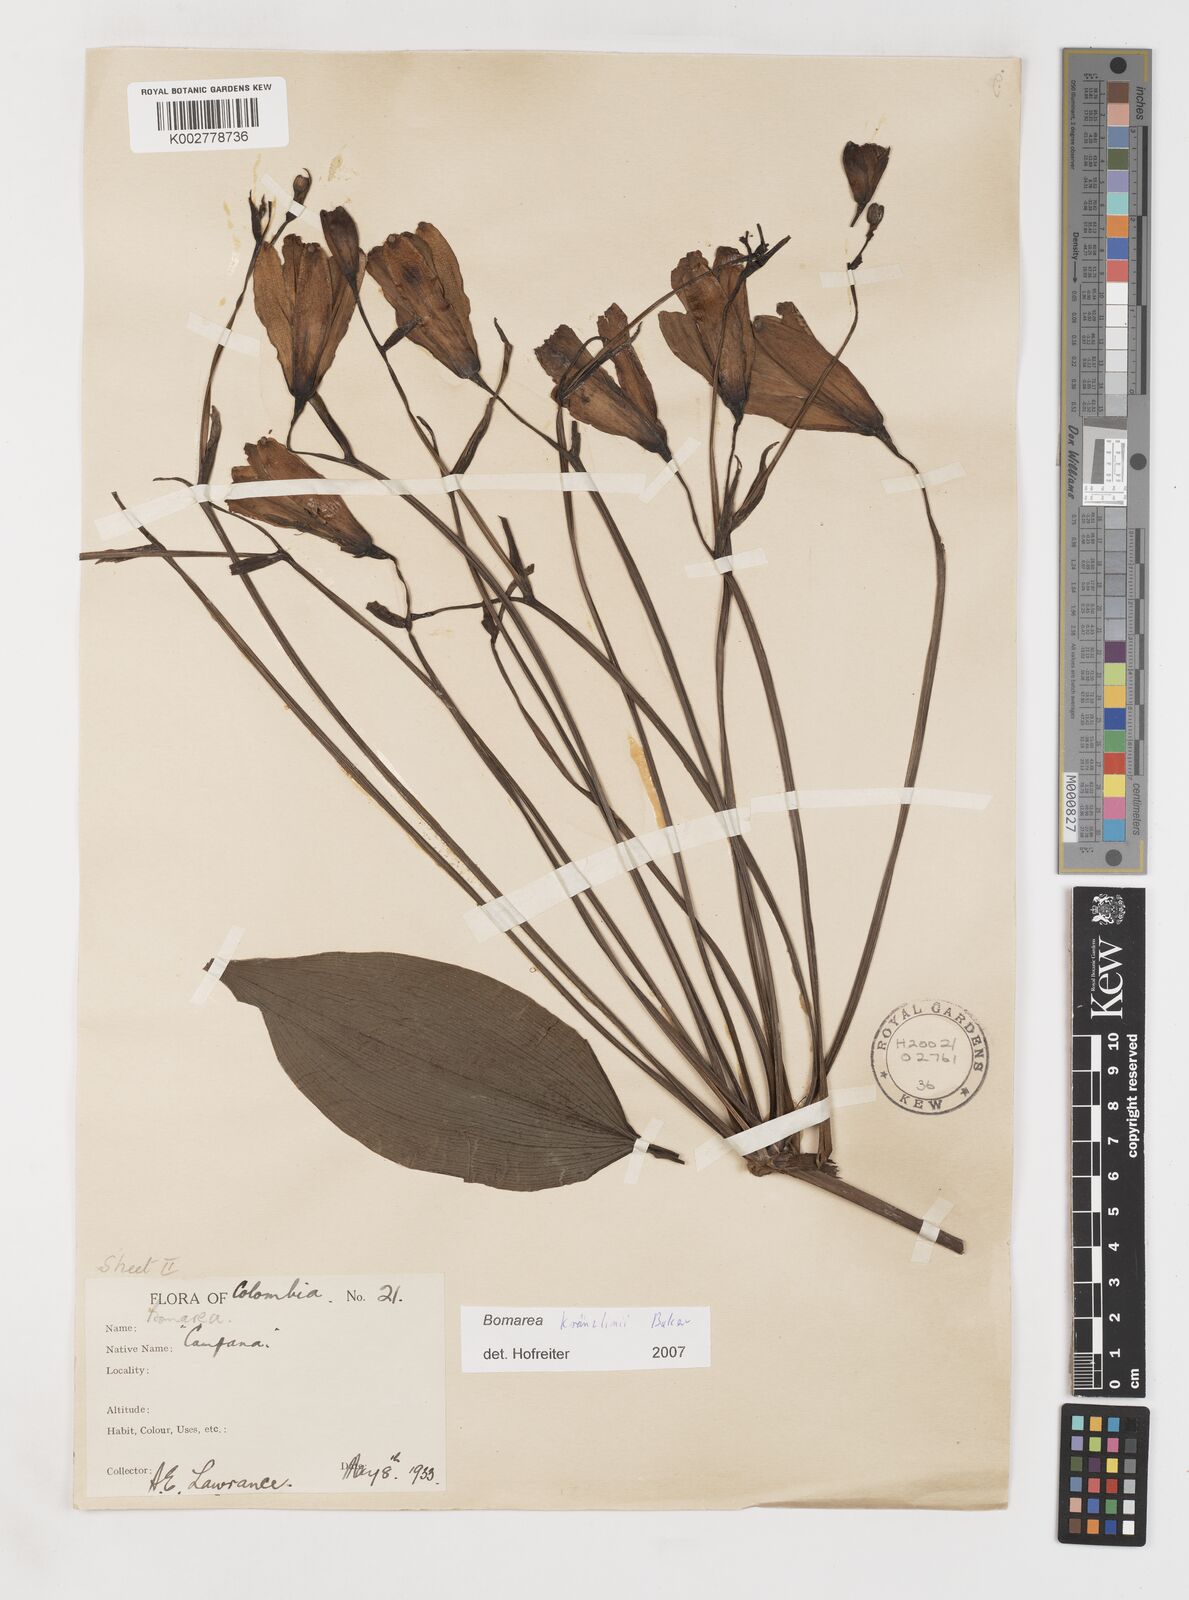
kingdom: Plantae
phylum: Tracheophyta
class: Liliopsida
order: Liliales
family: Alstroemeriaceae
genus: Bomarea
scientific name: Bomarea kraenzlinii
